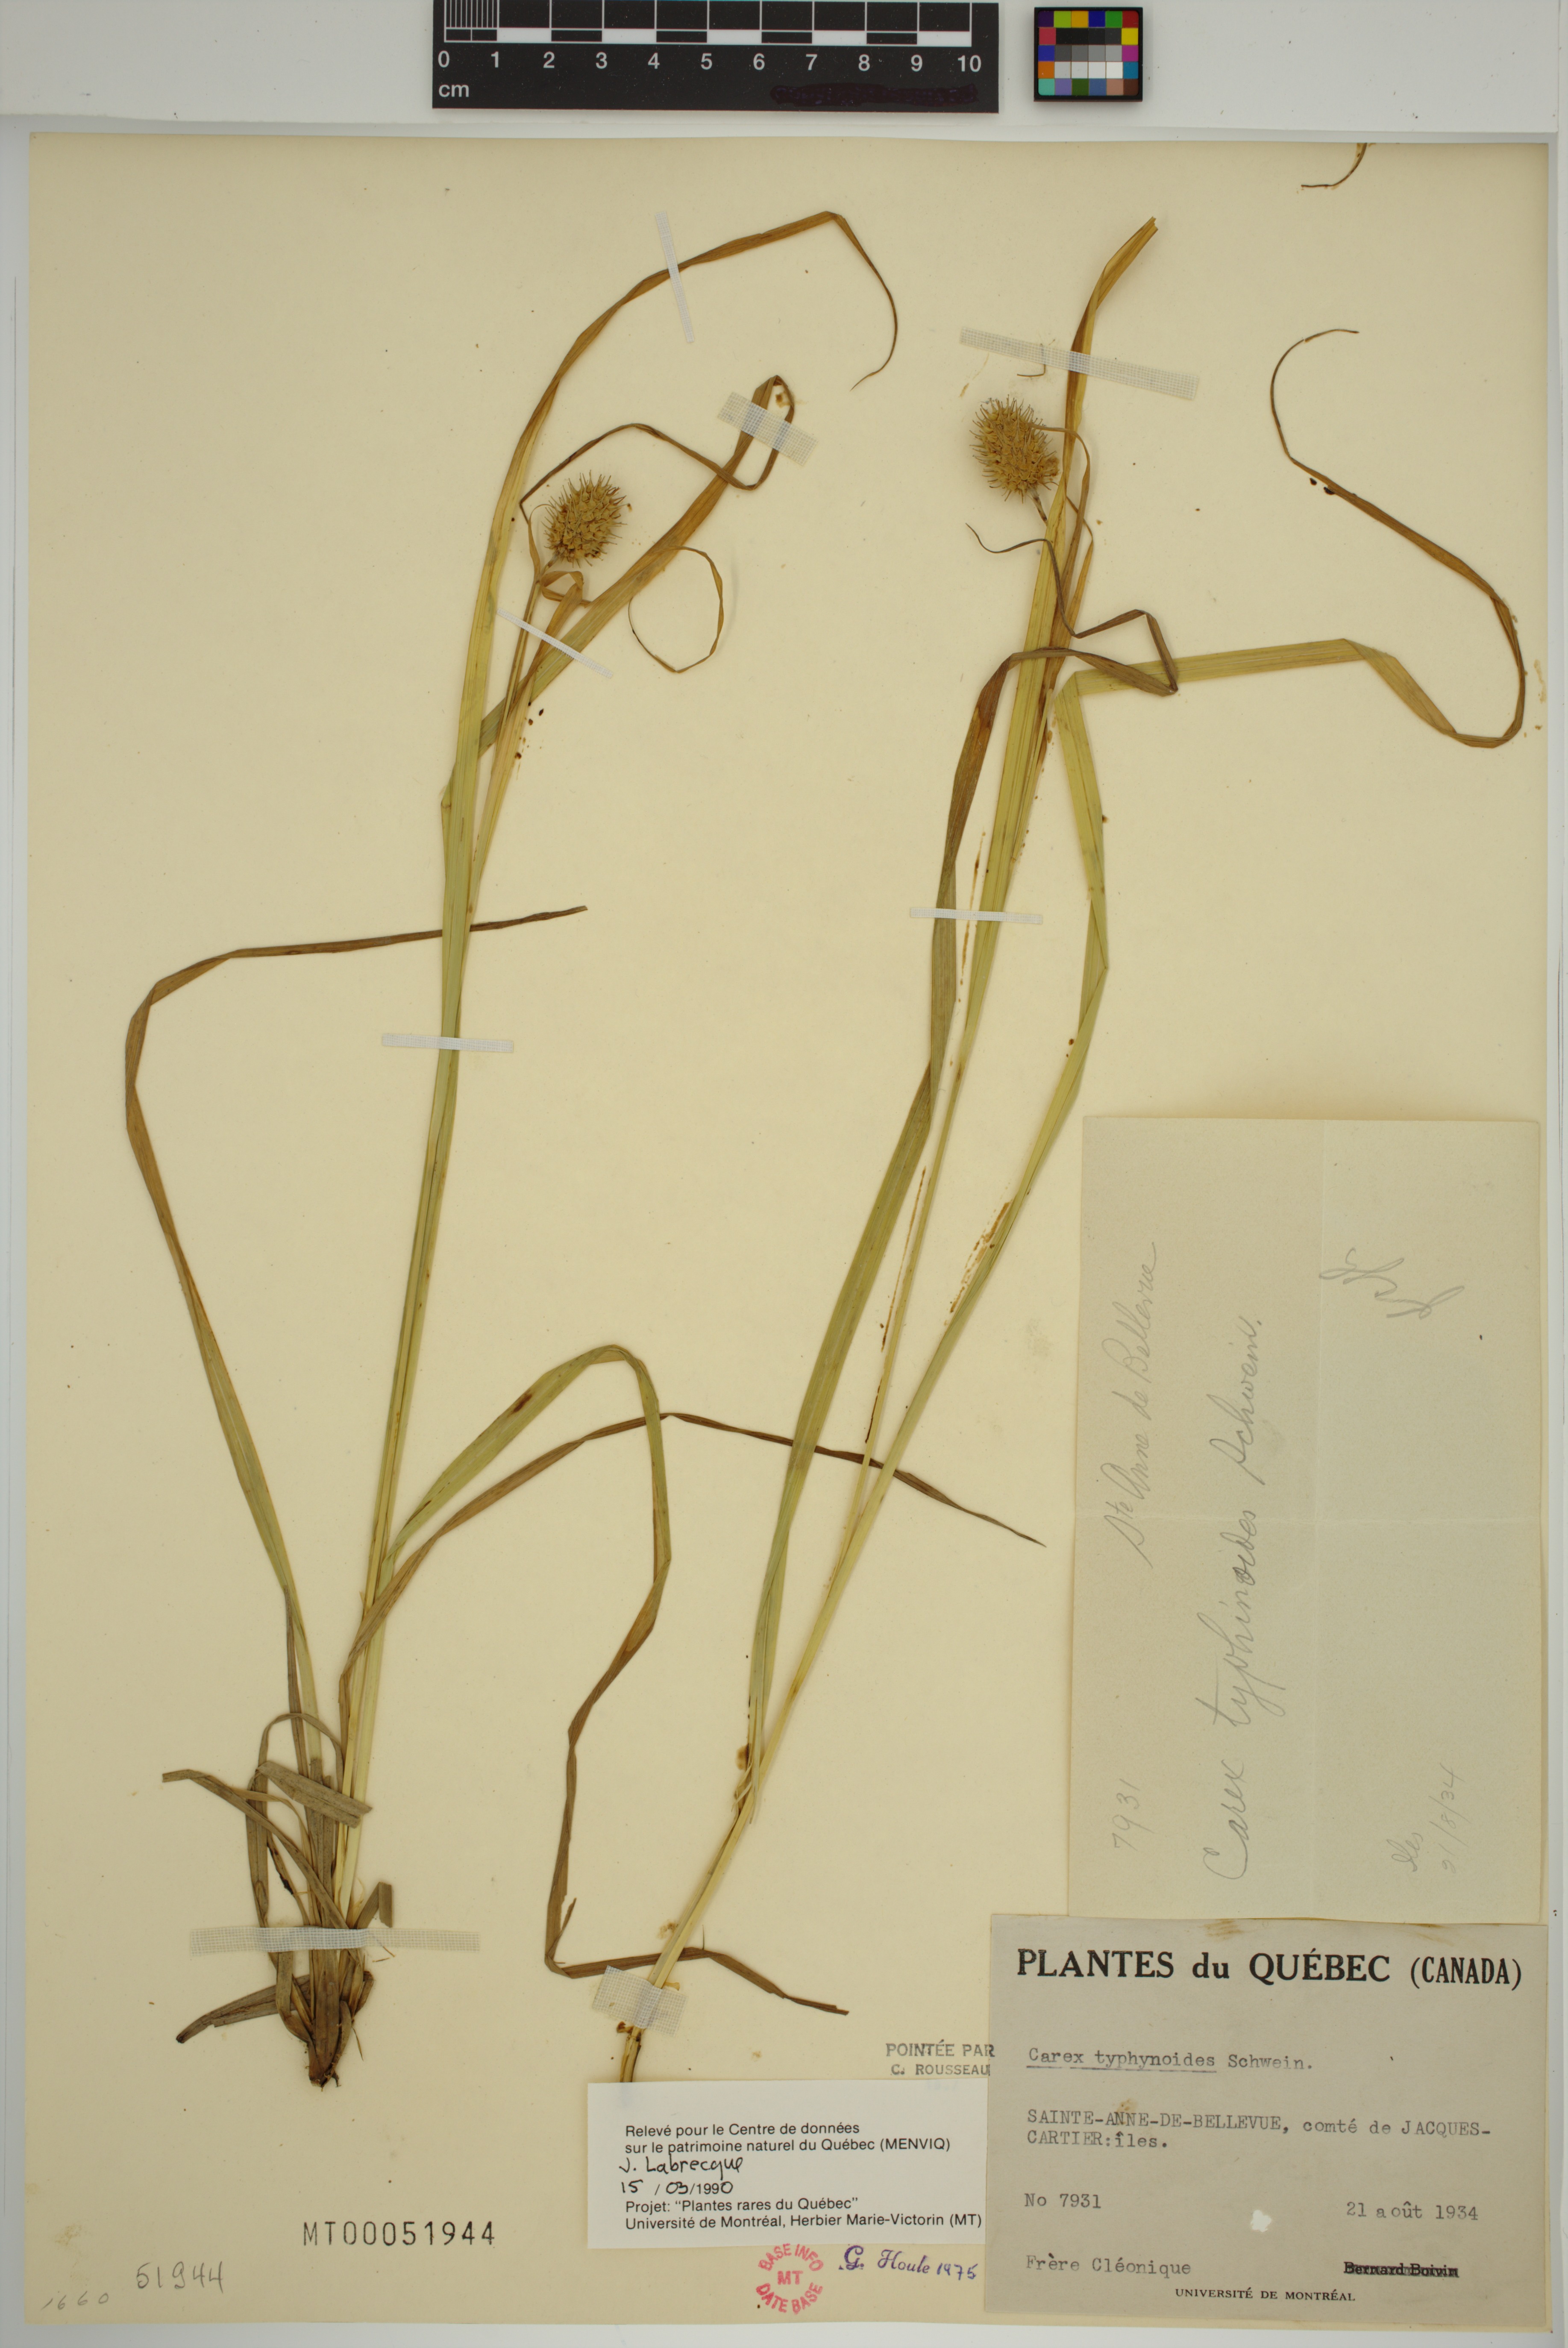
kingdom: Plantae
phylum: Tracheophyta
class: Liliopsida
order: Poales
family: Cyperaceae
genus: Carex
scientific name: Carex typhina
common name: Cattail sedge
